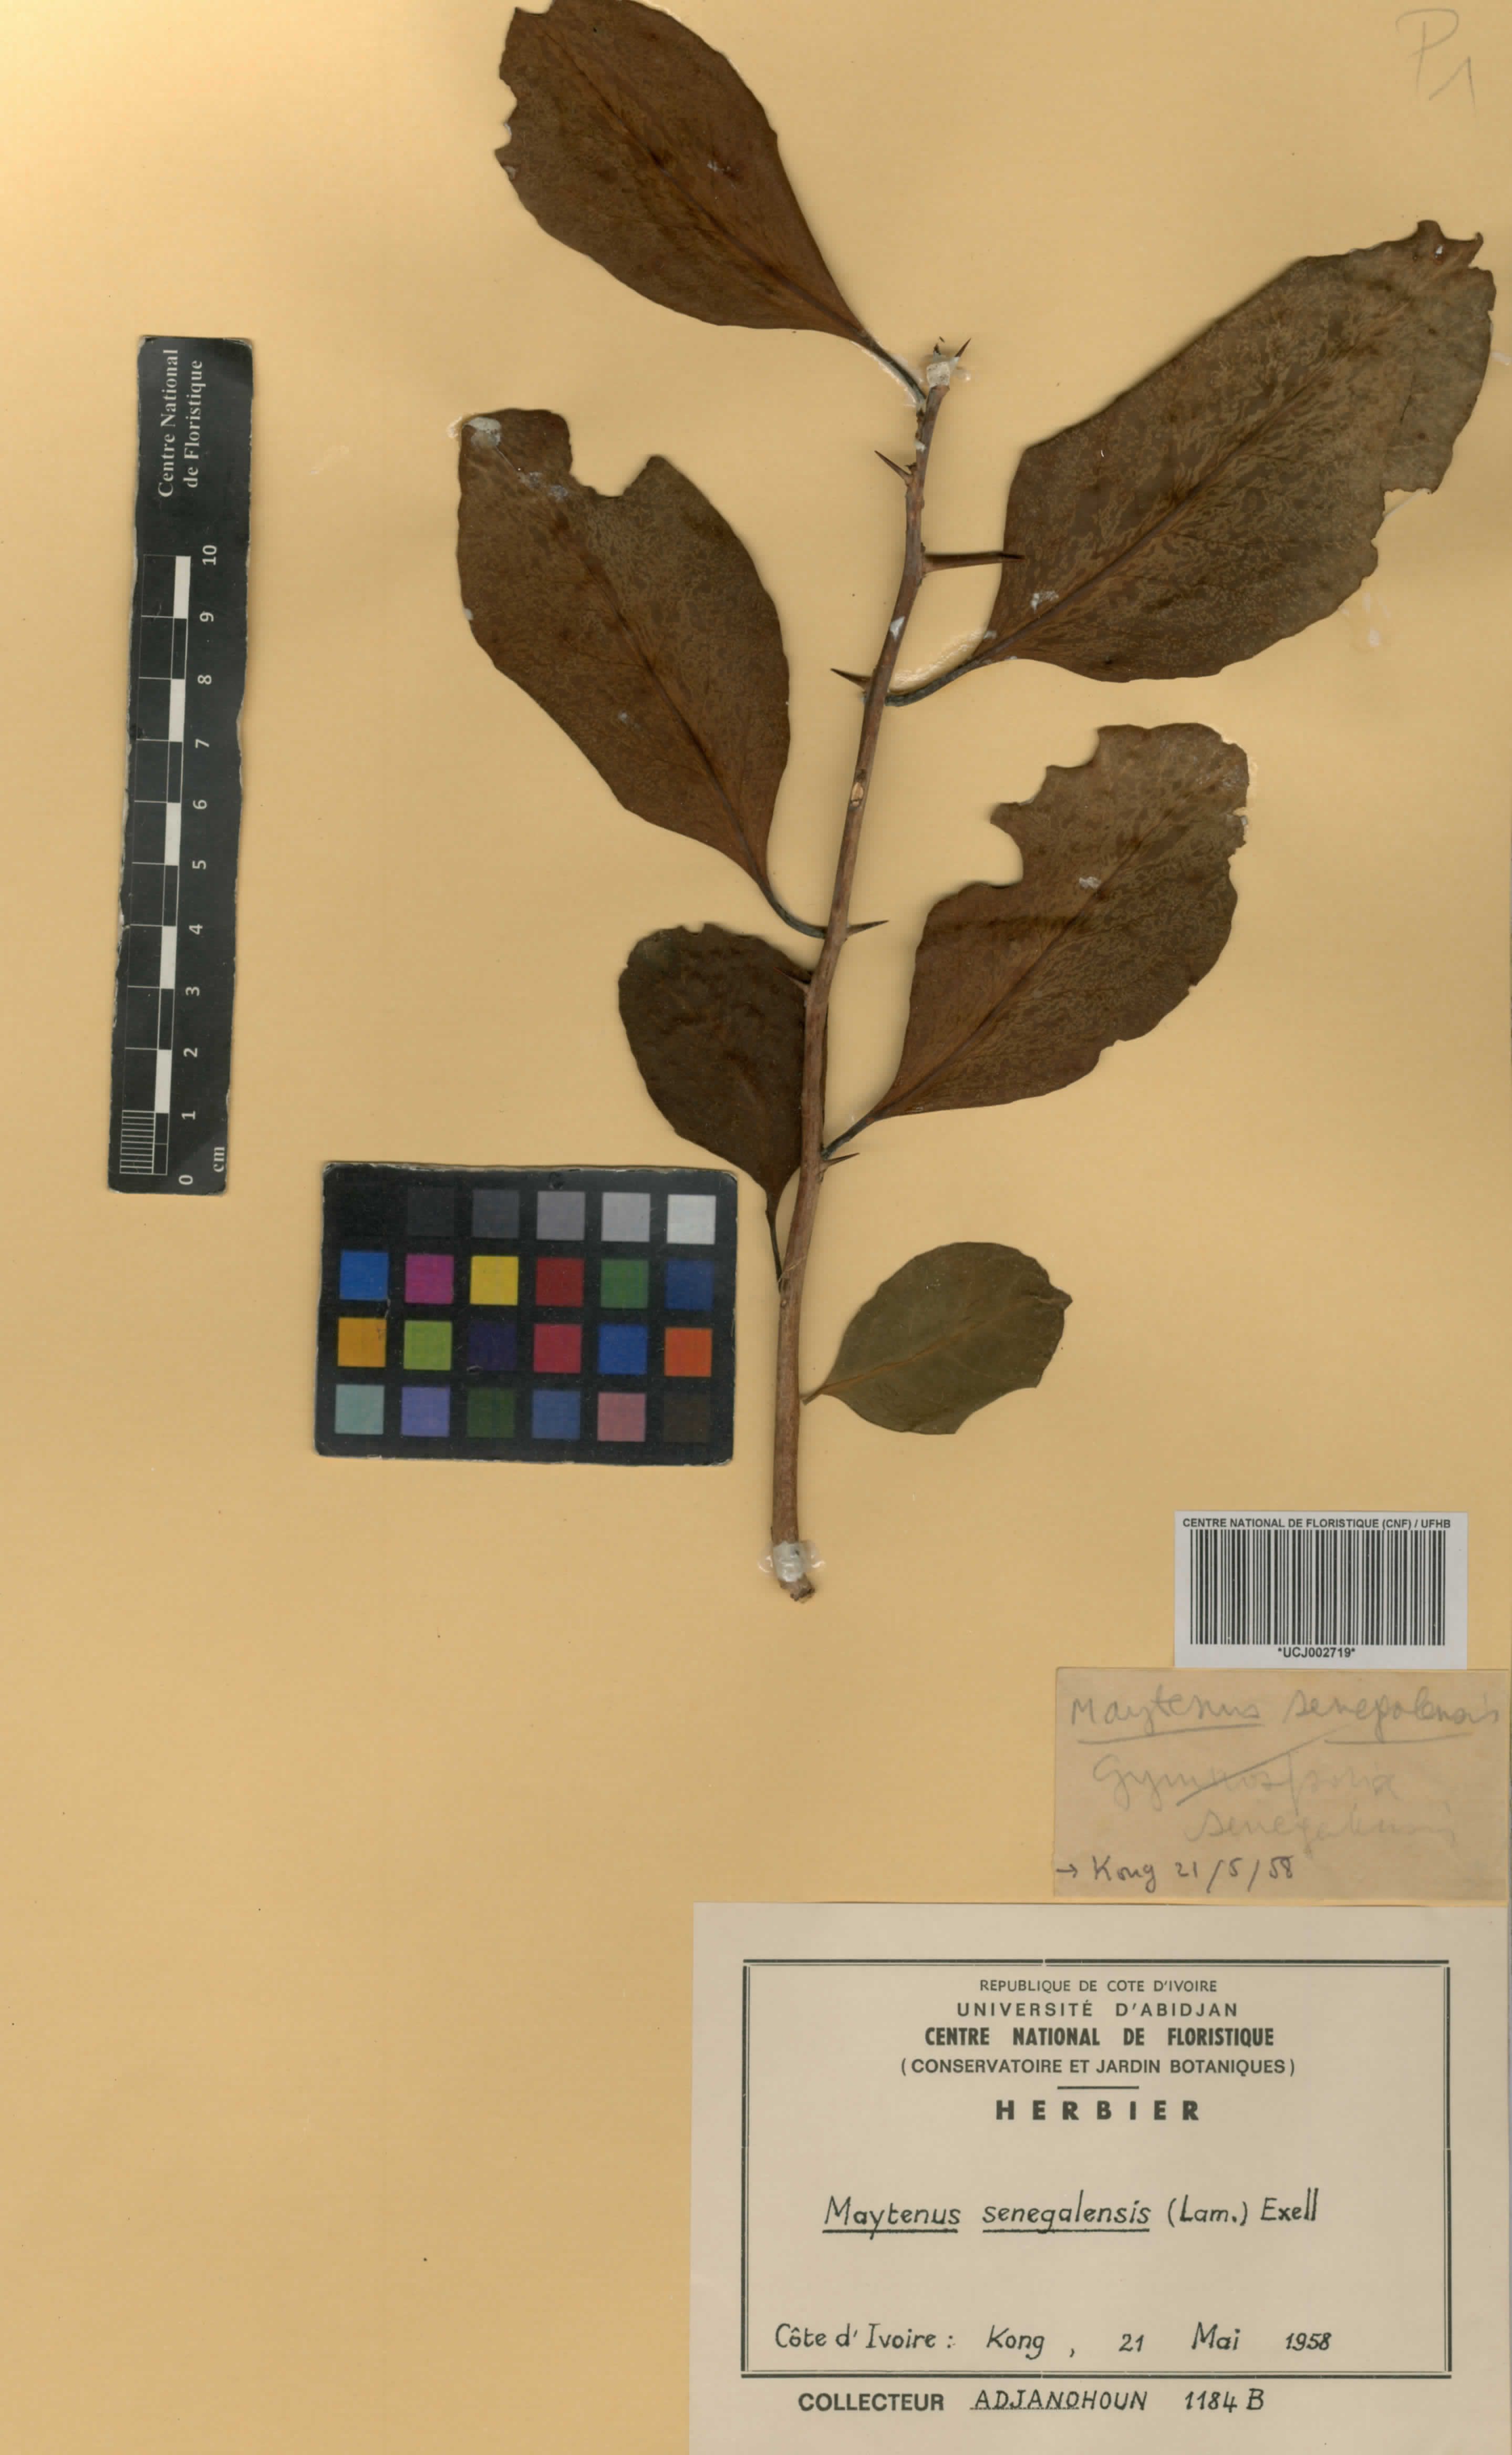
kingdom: Plantae
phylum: Tracheophyta
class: Magnoliopsida
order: Celastrales
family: Celastraceae
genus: Gymnosporia
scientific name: Gymnosporia senegalensis
